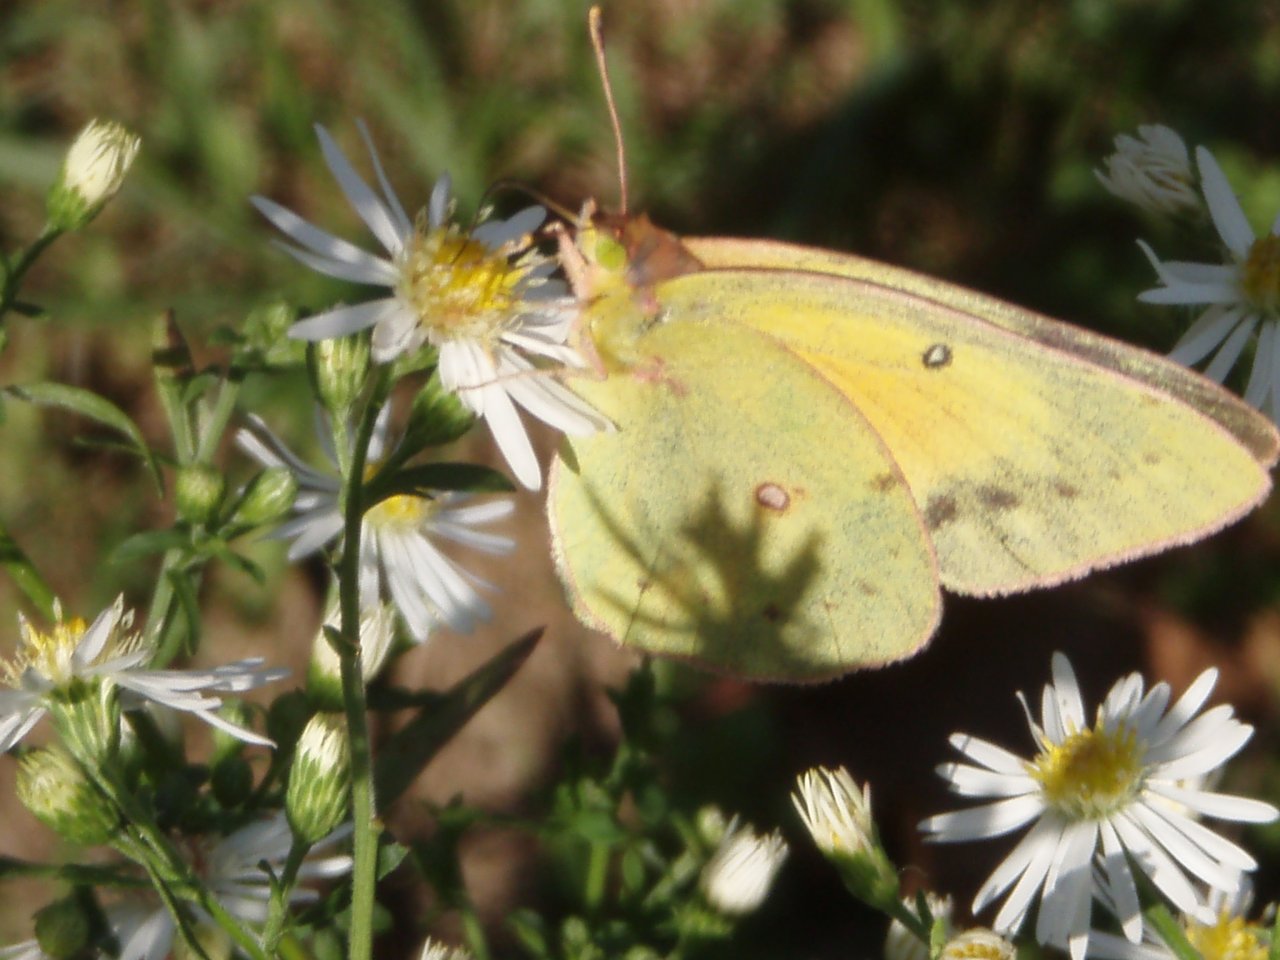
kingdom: Animalia
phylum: Arthropoda
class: Insecta
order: Lepidoptera
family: Pieridae
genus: Colias
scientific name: Colias eurytheme
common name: Orange Sulphur
